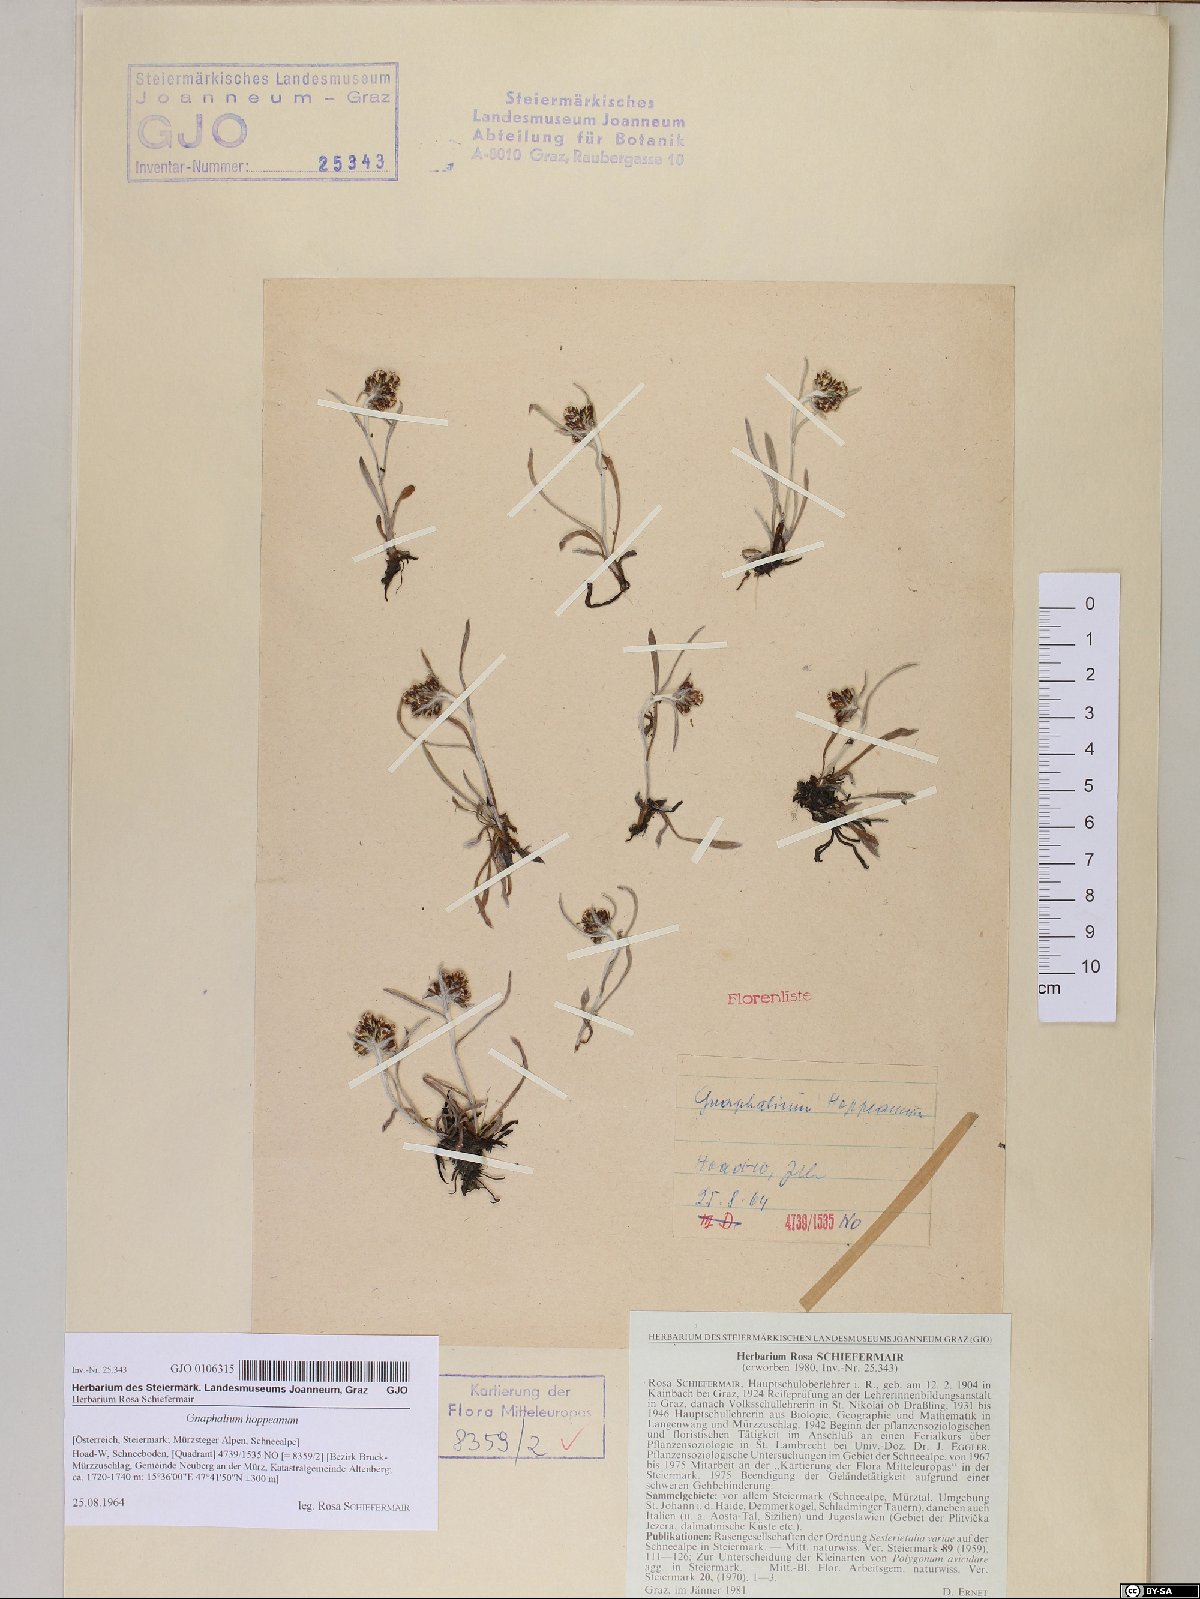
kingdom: Plantae
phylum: Tracheophyta
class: Magnoliopsida
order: Asterales
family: Asteraceae
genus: Omalotheca
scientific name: Omalotheca hoppeana
